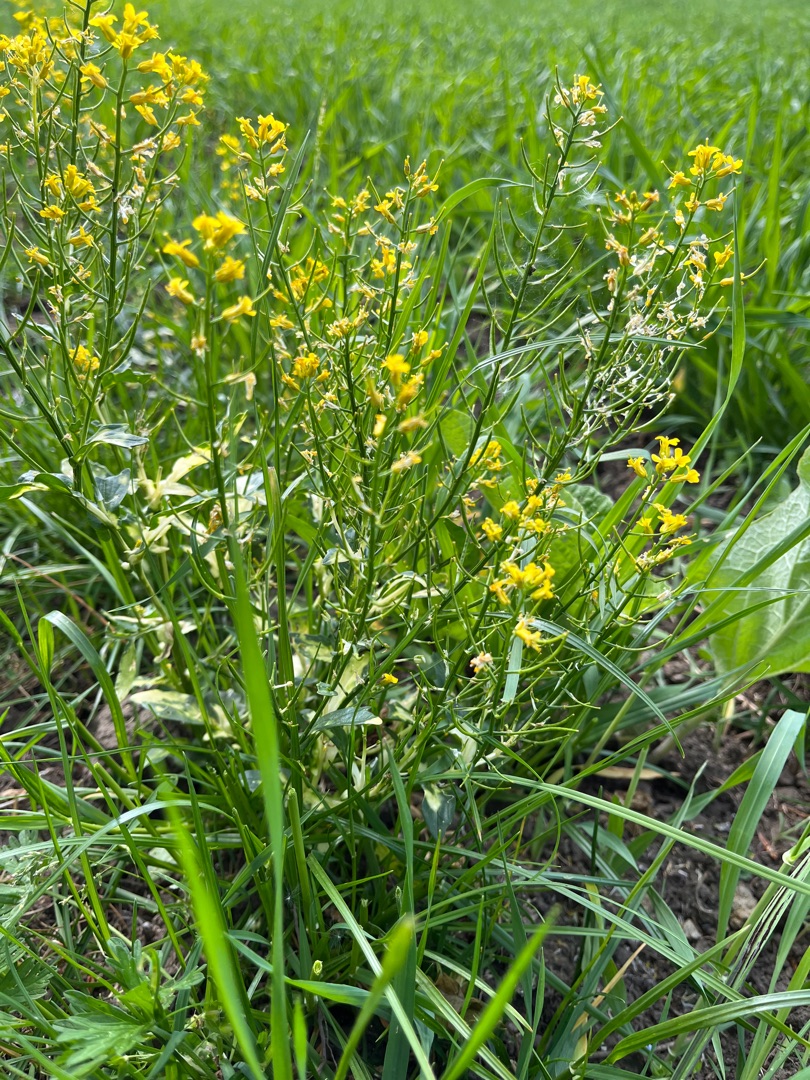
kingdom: Plantae
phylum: Tracheophyta
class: Magnoliopsida
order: Brassicales
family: Brassicaceae
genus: Barbarea
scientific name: Barbarea vulgaris
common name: Udspærret vinterkarse
